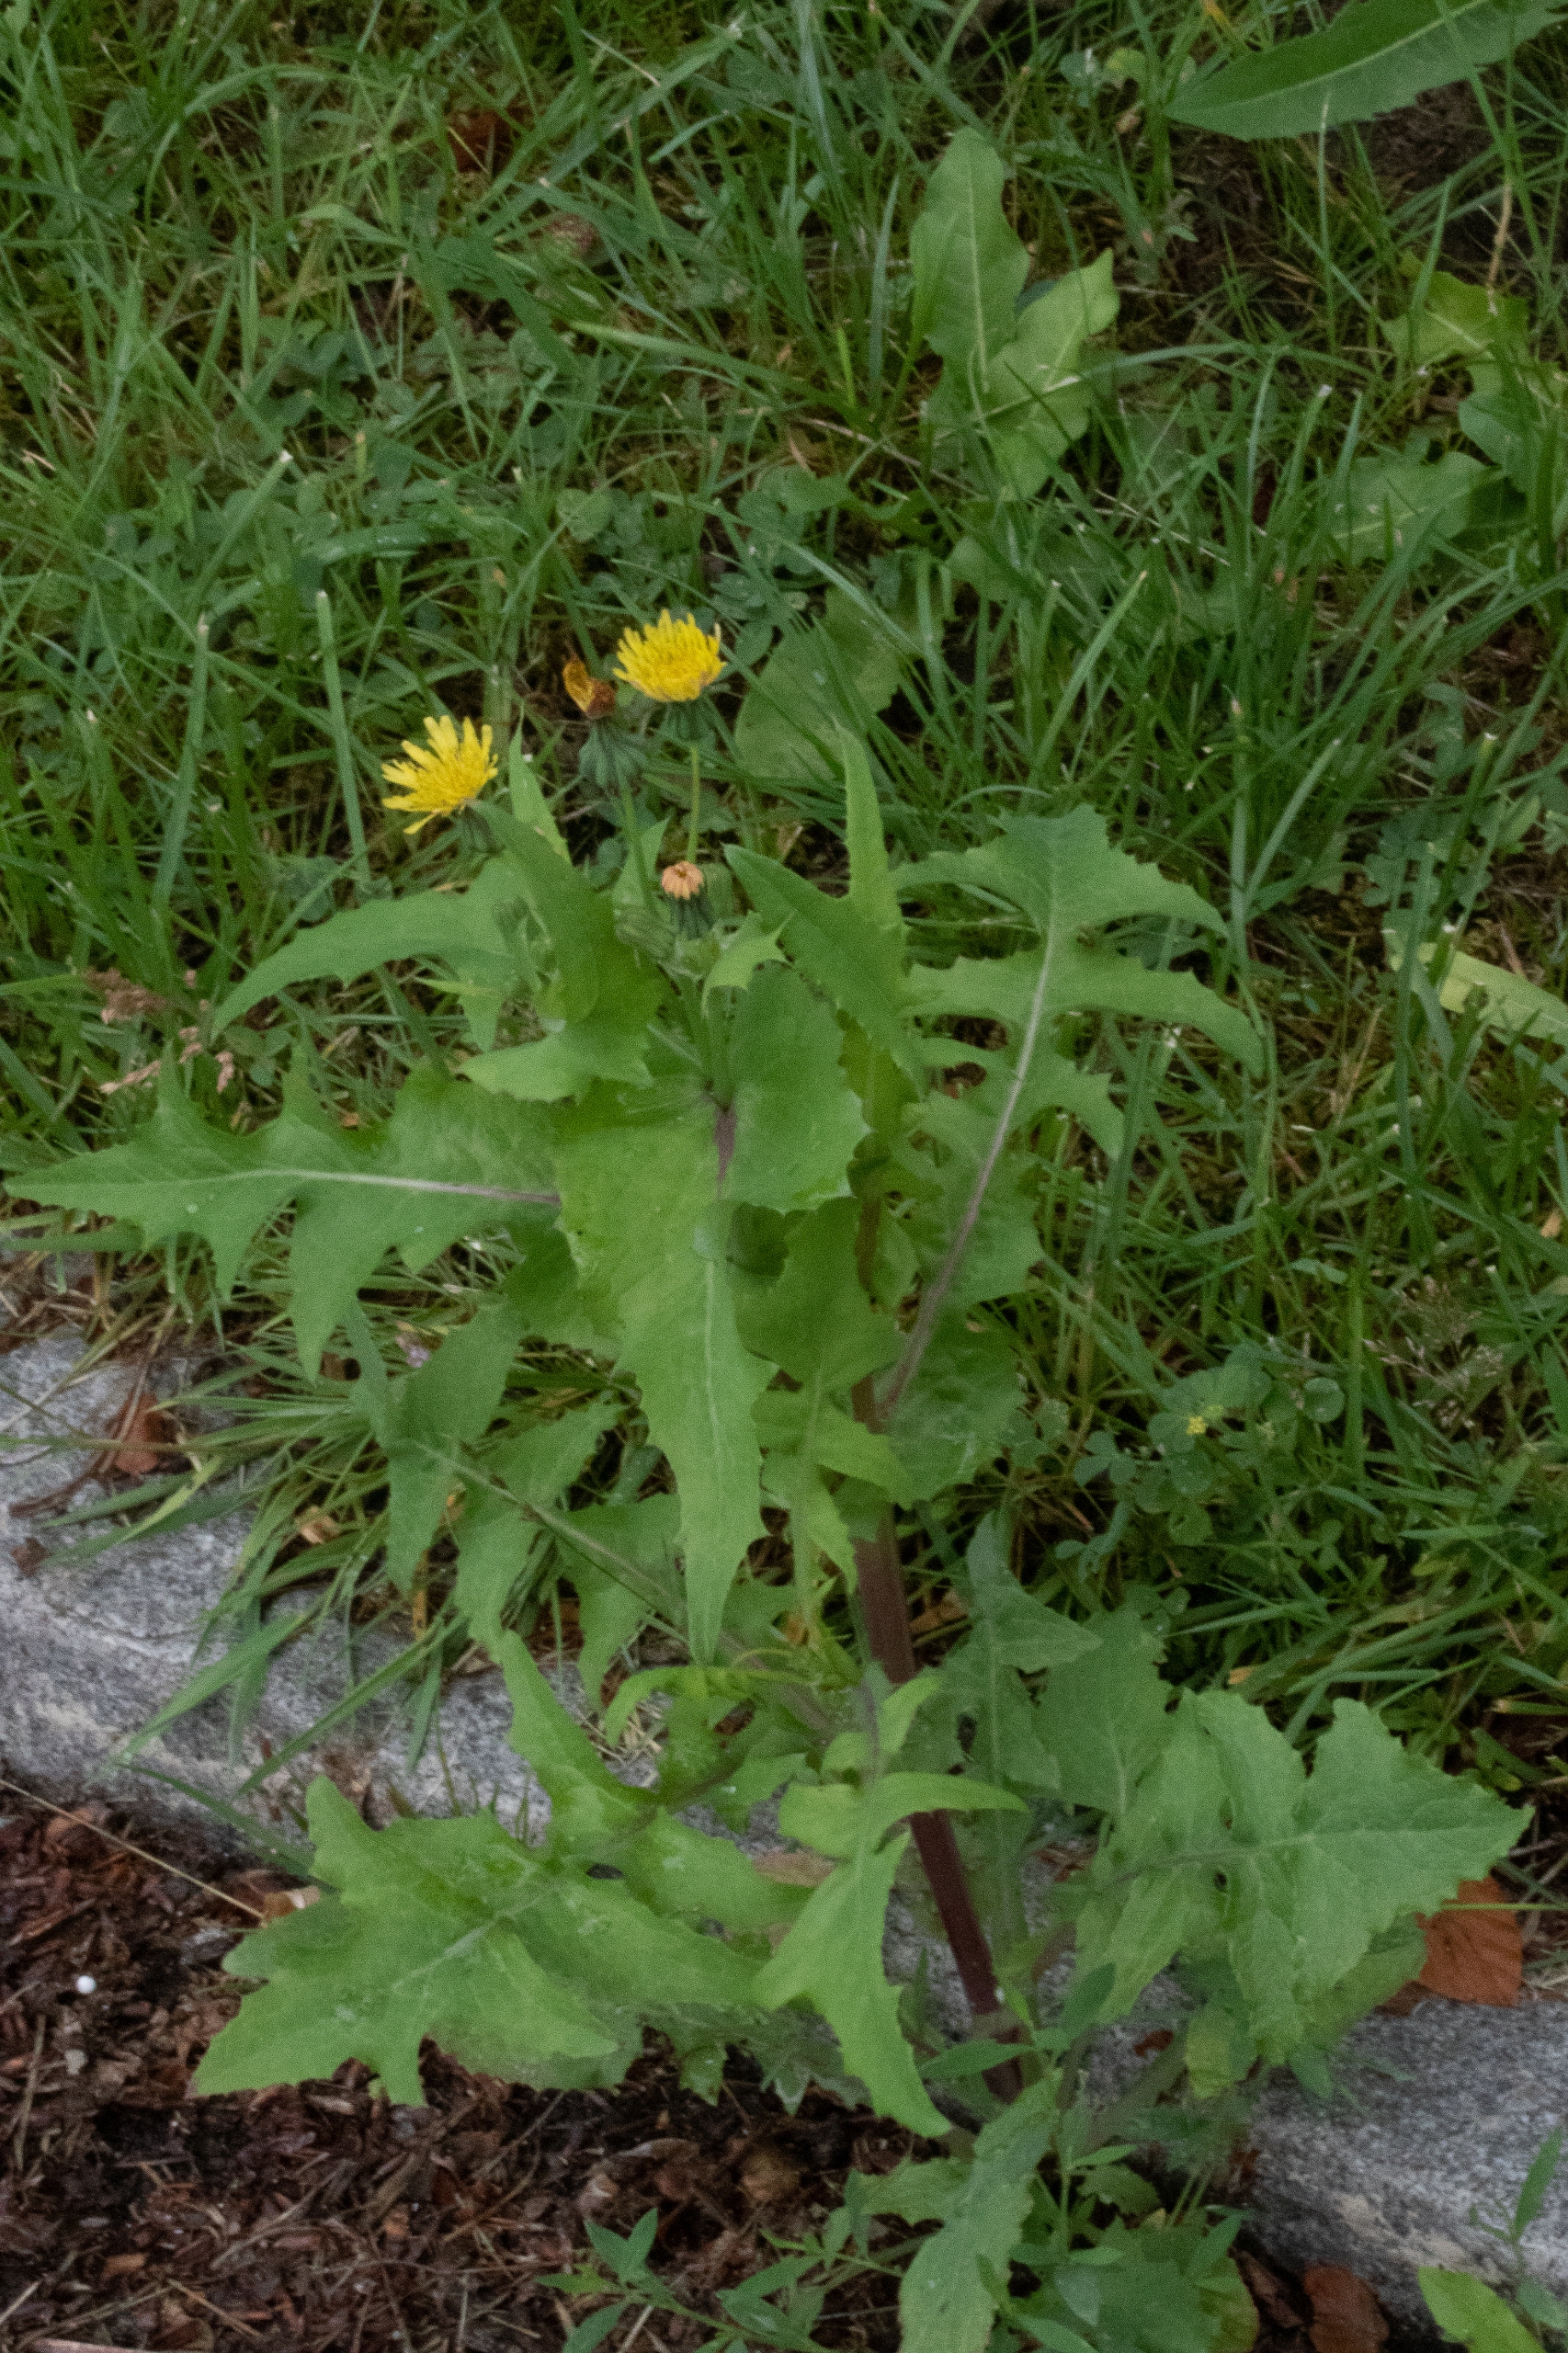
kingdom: Plantae
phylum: Tracheophyta
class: Magnoliopsida
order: Asterales
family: Asteraceae
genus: Sonchus
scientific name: Sonchus oleraceus
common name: Almindelig svinemælk
